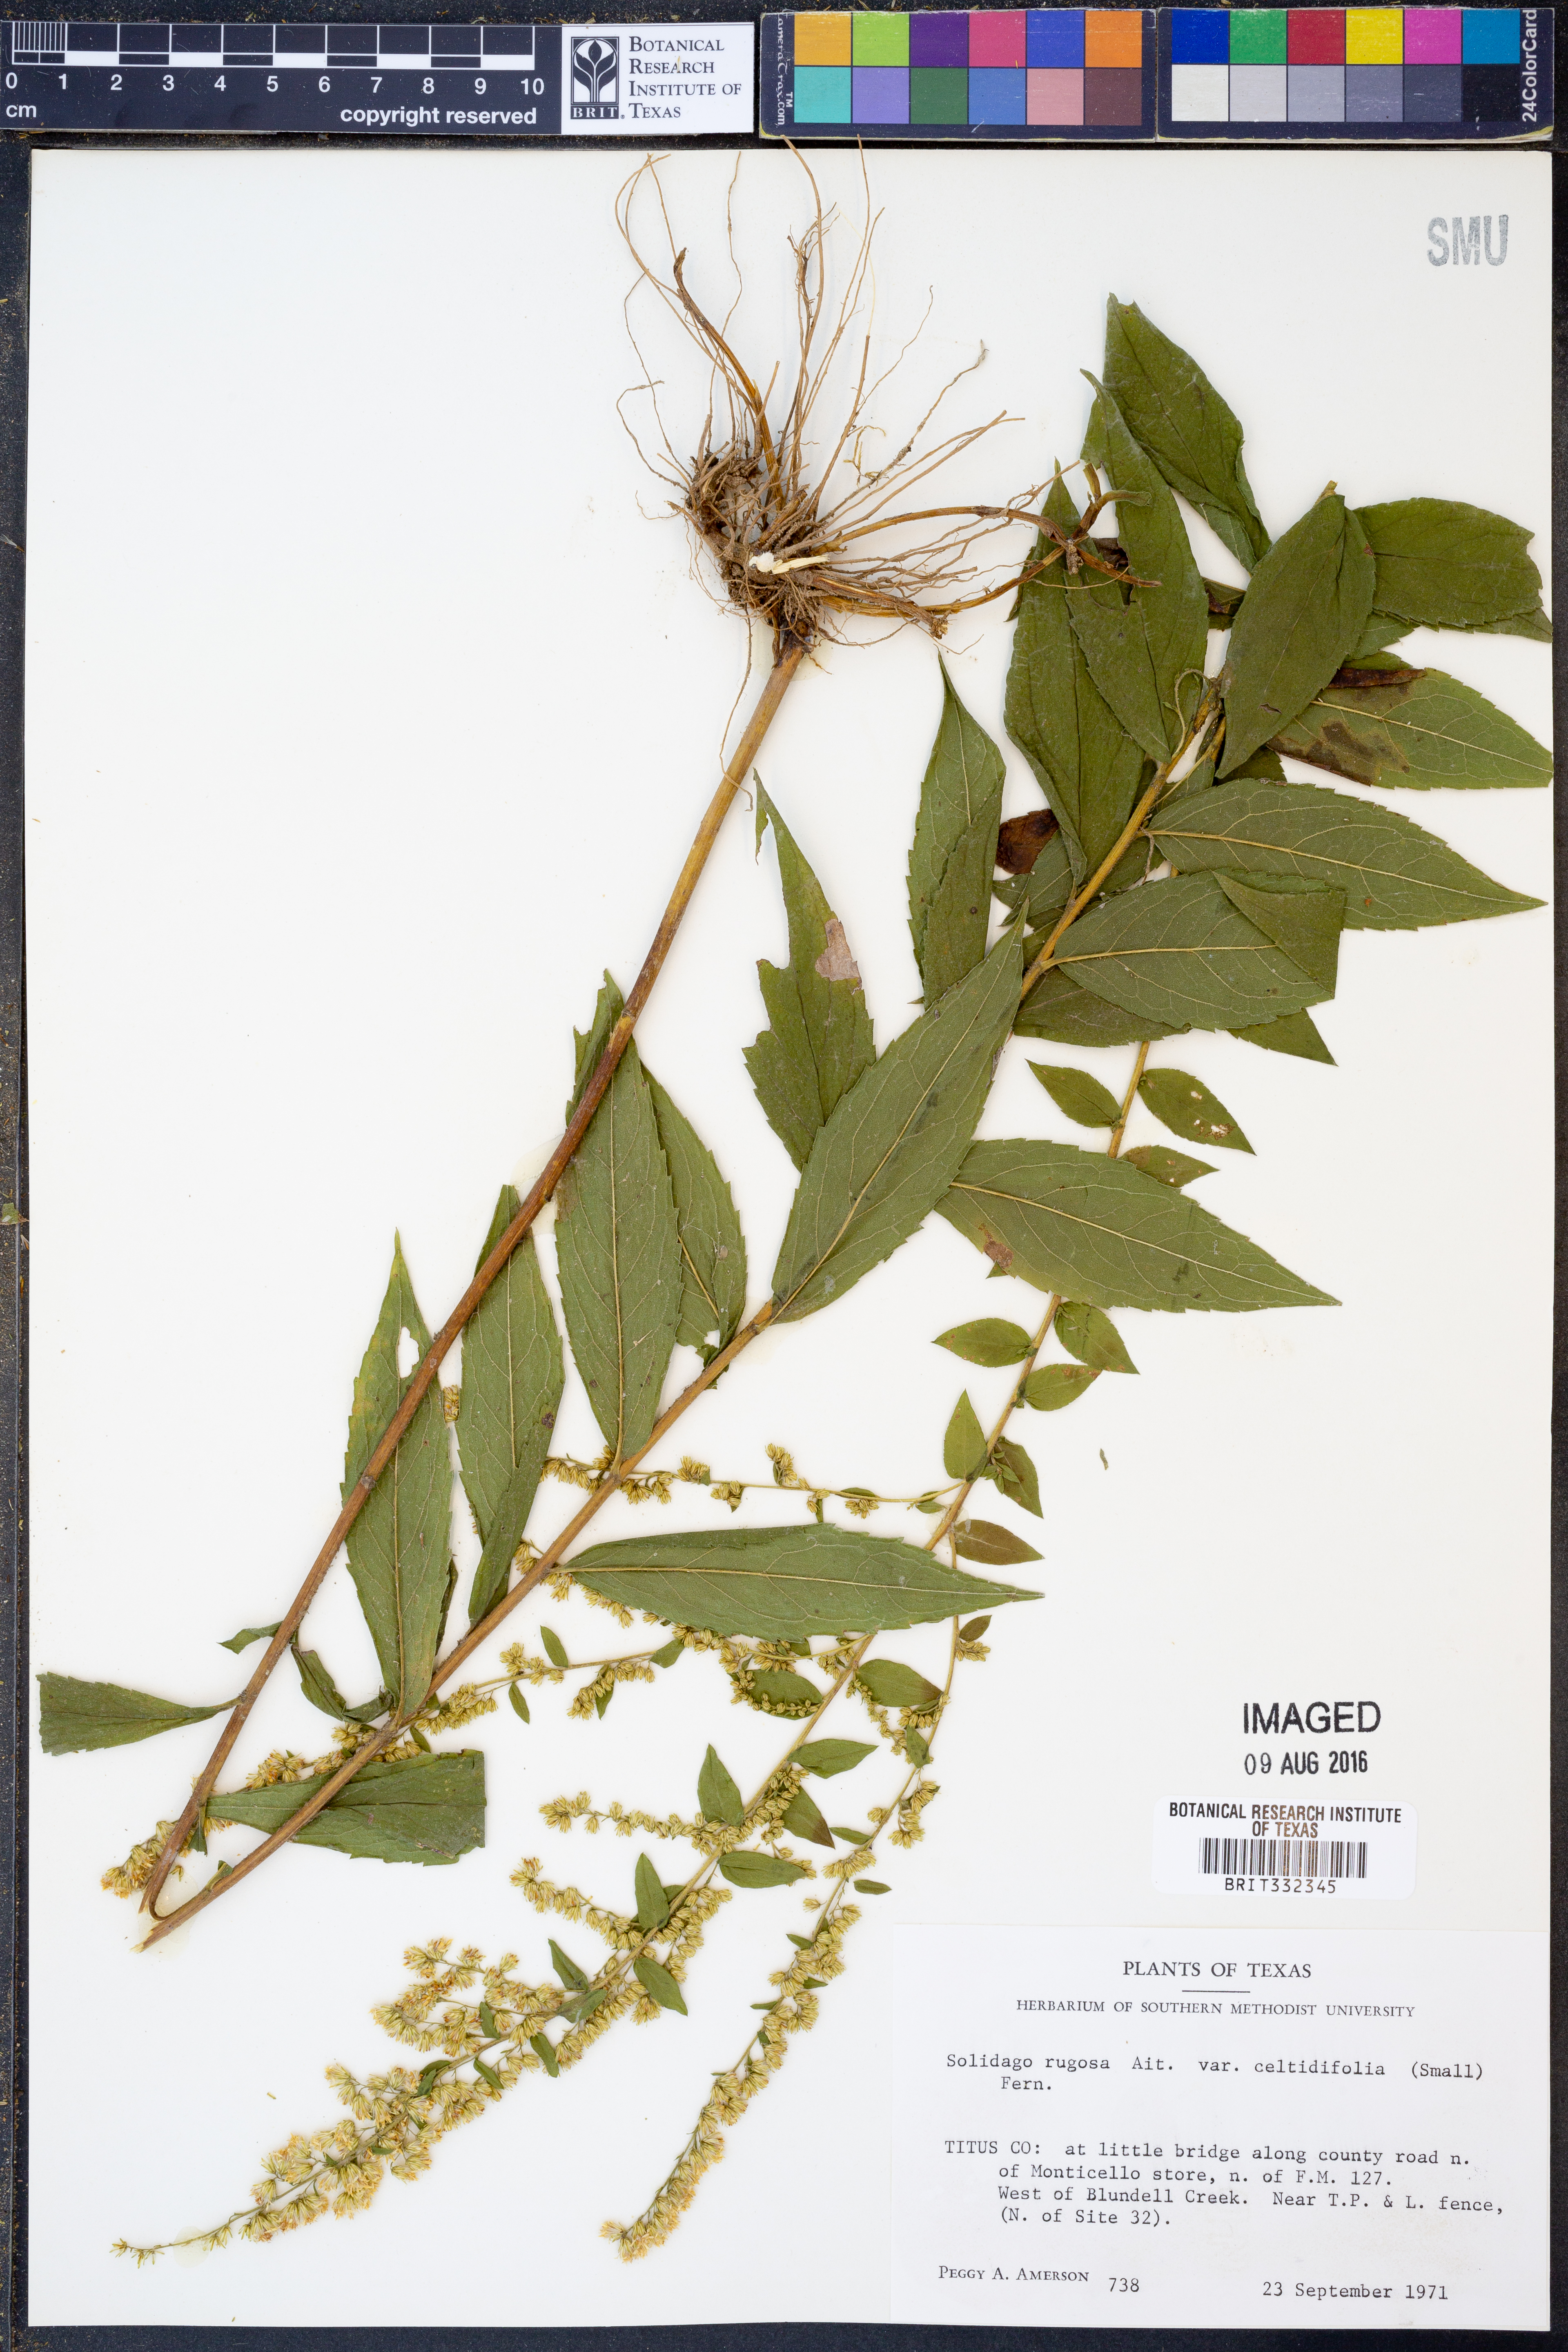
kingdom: Plantae
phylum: Tracheophyta
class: Magnoliopsida
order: Asterales
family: Asteraceae
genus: Solidago
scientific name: Solidago rugosa
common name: Rough-stemmed goldenrod
